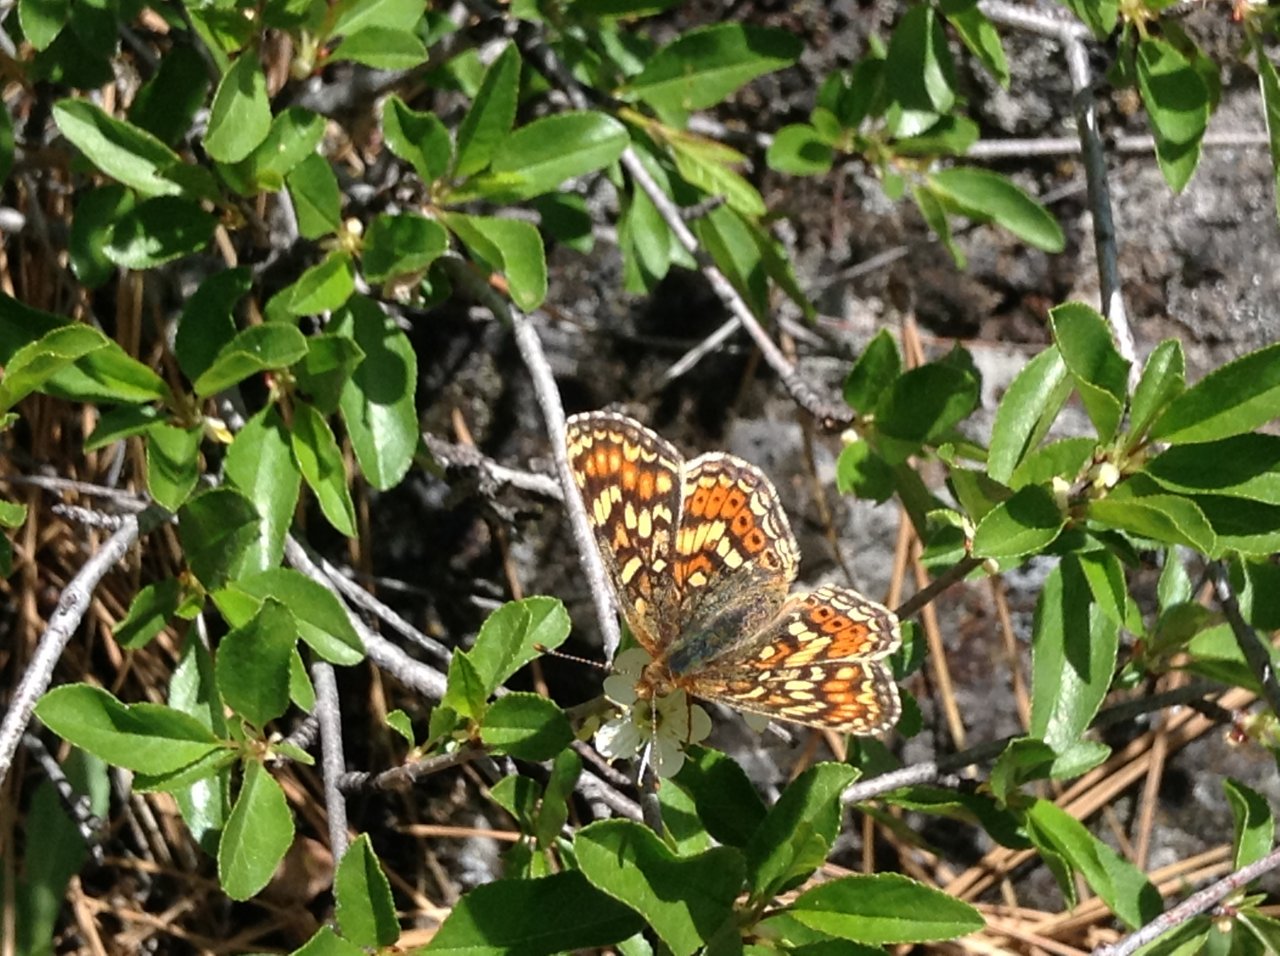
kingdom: Animalia
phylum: Arthropoda
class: Insecta
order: Lepidoptera
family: Nymphalidae
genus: Phyciodes
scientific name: Phyciodes
